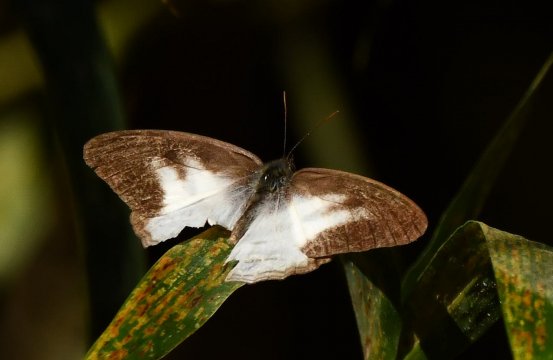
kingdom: Animalia
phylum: Arthropoda
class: Insecta
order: Lepidoptera
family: Nymphalidae
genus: Pareuptychia
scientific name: Pareuptychia hesione
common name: White Satyr
